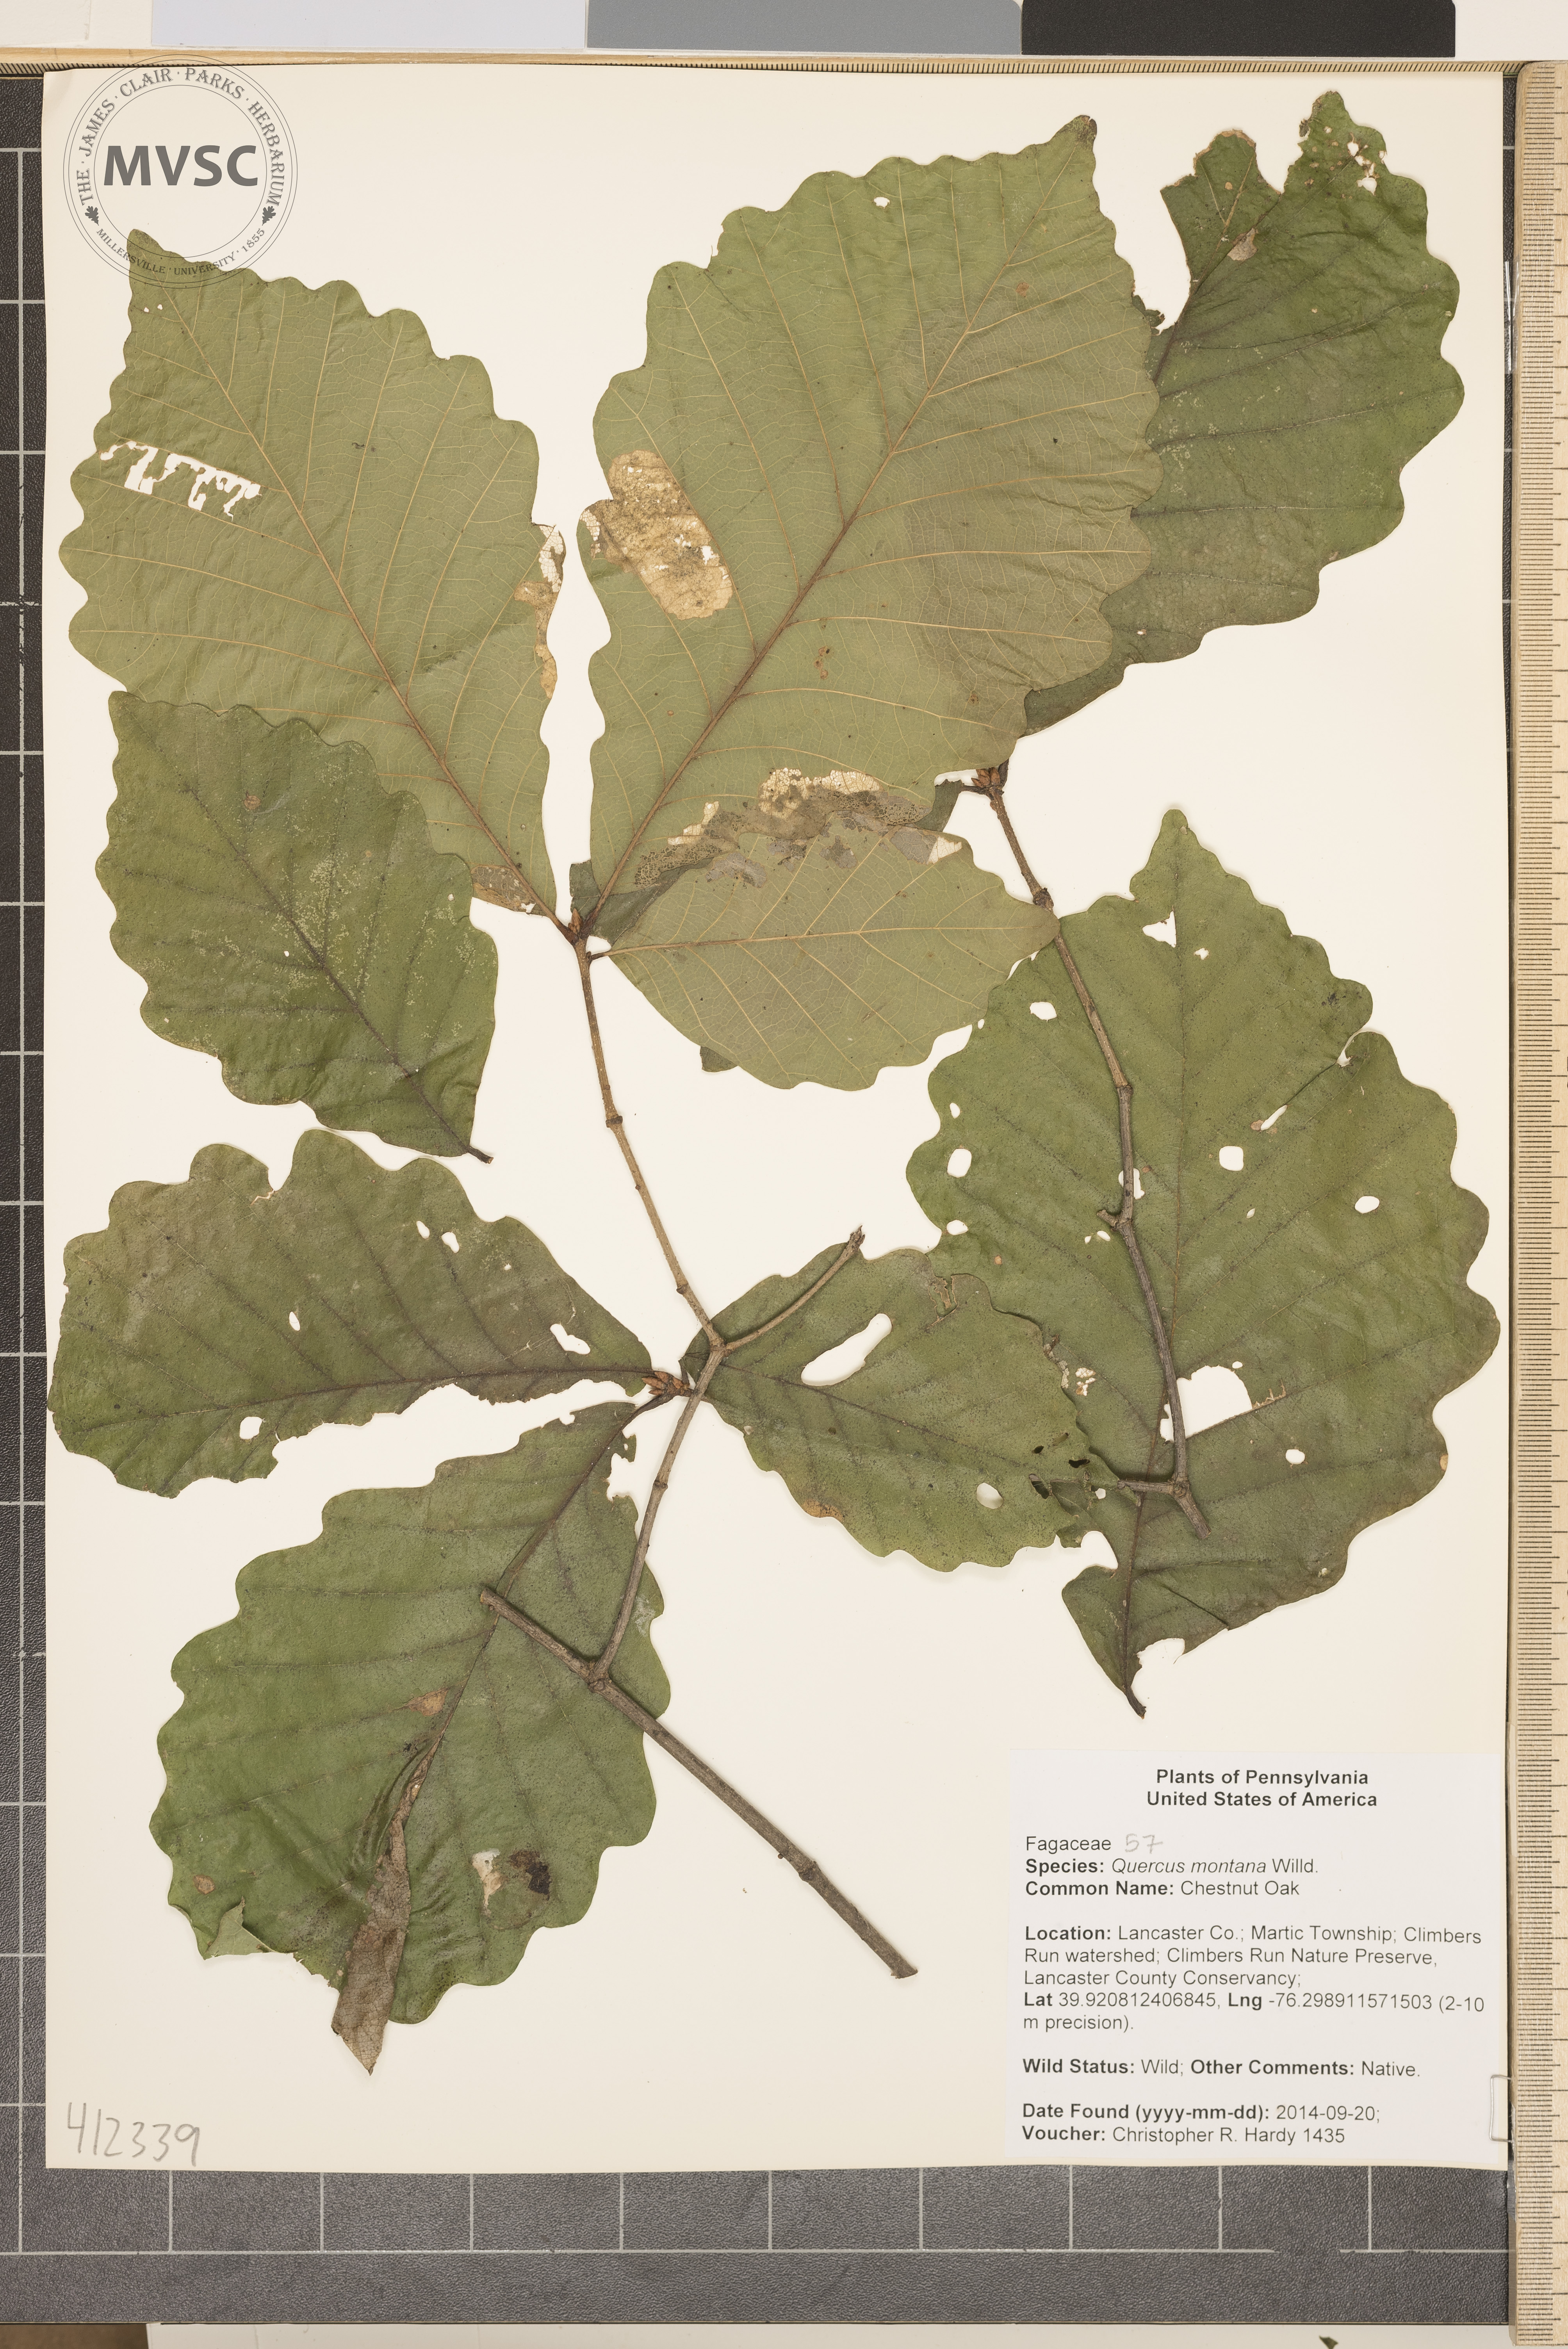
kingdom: Plantae
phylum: Tracheophyta
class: Magnoliopsida
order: Fagales
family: Fagaceae
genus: Quercus
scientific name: Quercus montana
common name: chestnut oak
